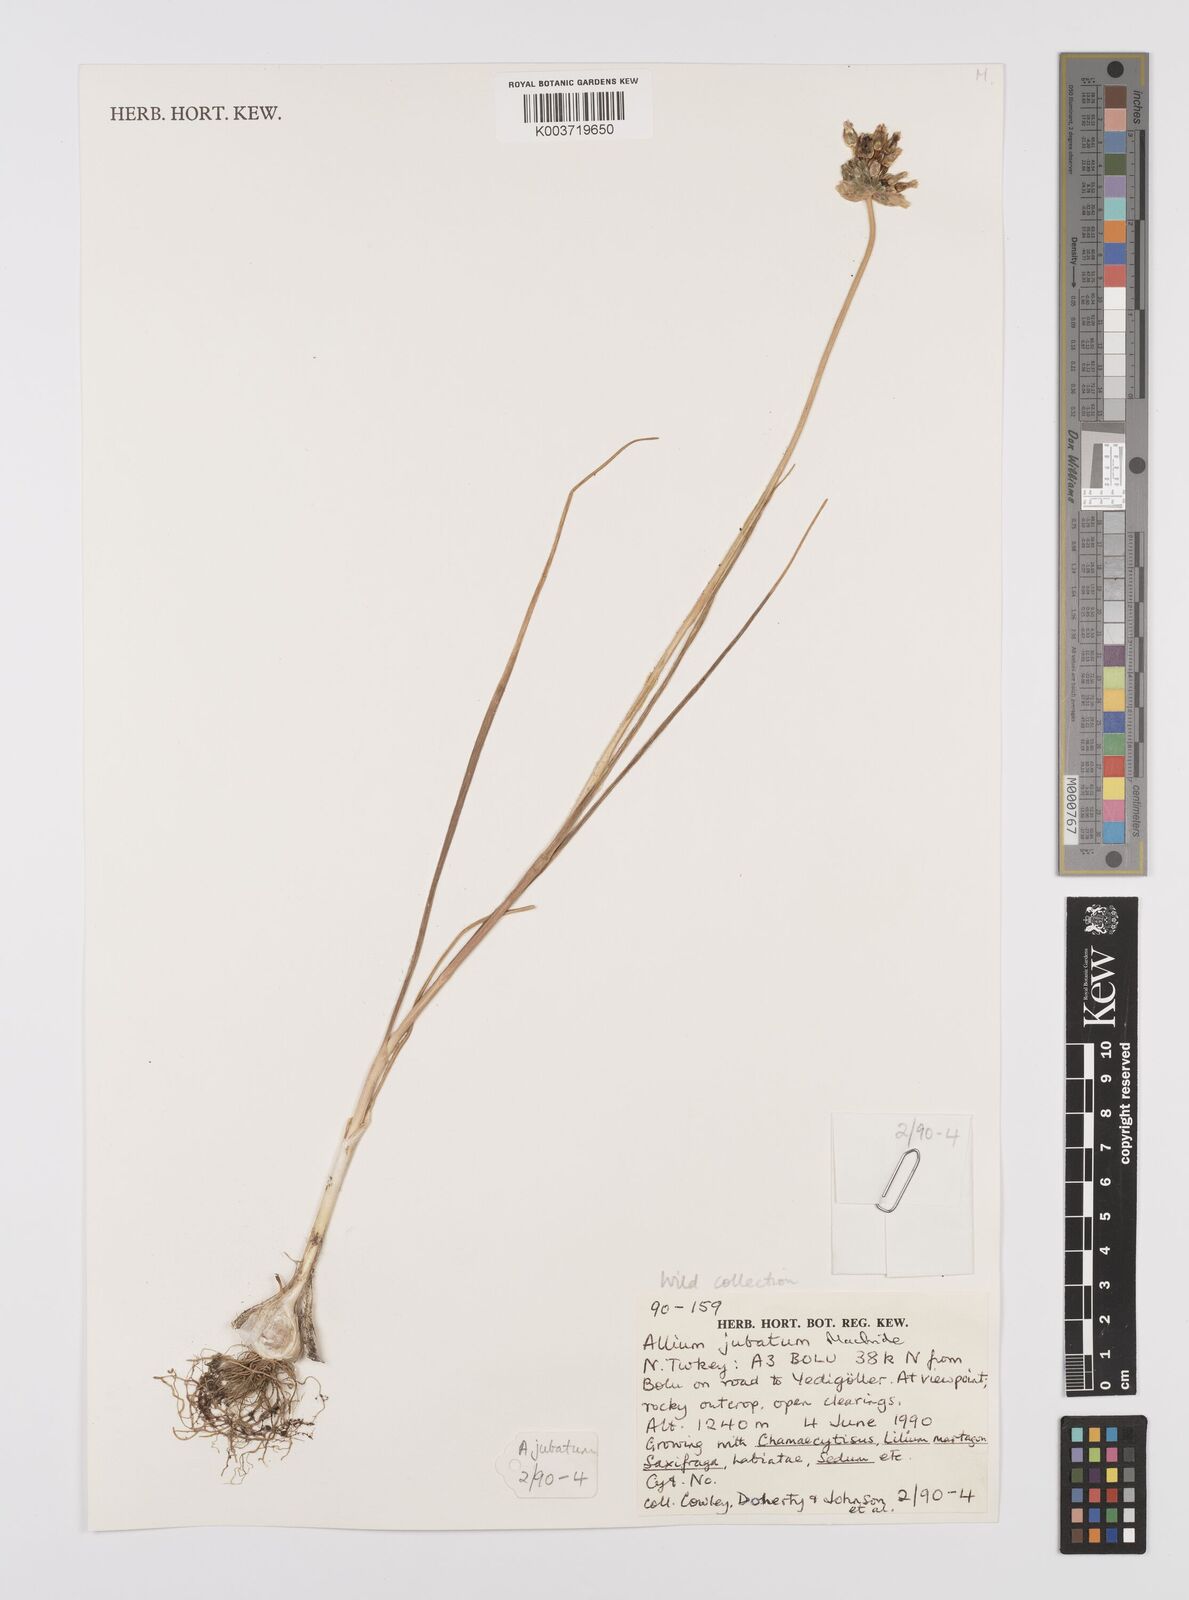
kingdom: Plantae
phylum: Tracheophyta
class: Liliopsida
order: Asparagales
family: Amaryllidaceae
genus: Allium
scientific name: Allium jubatum
